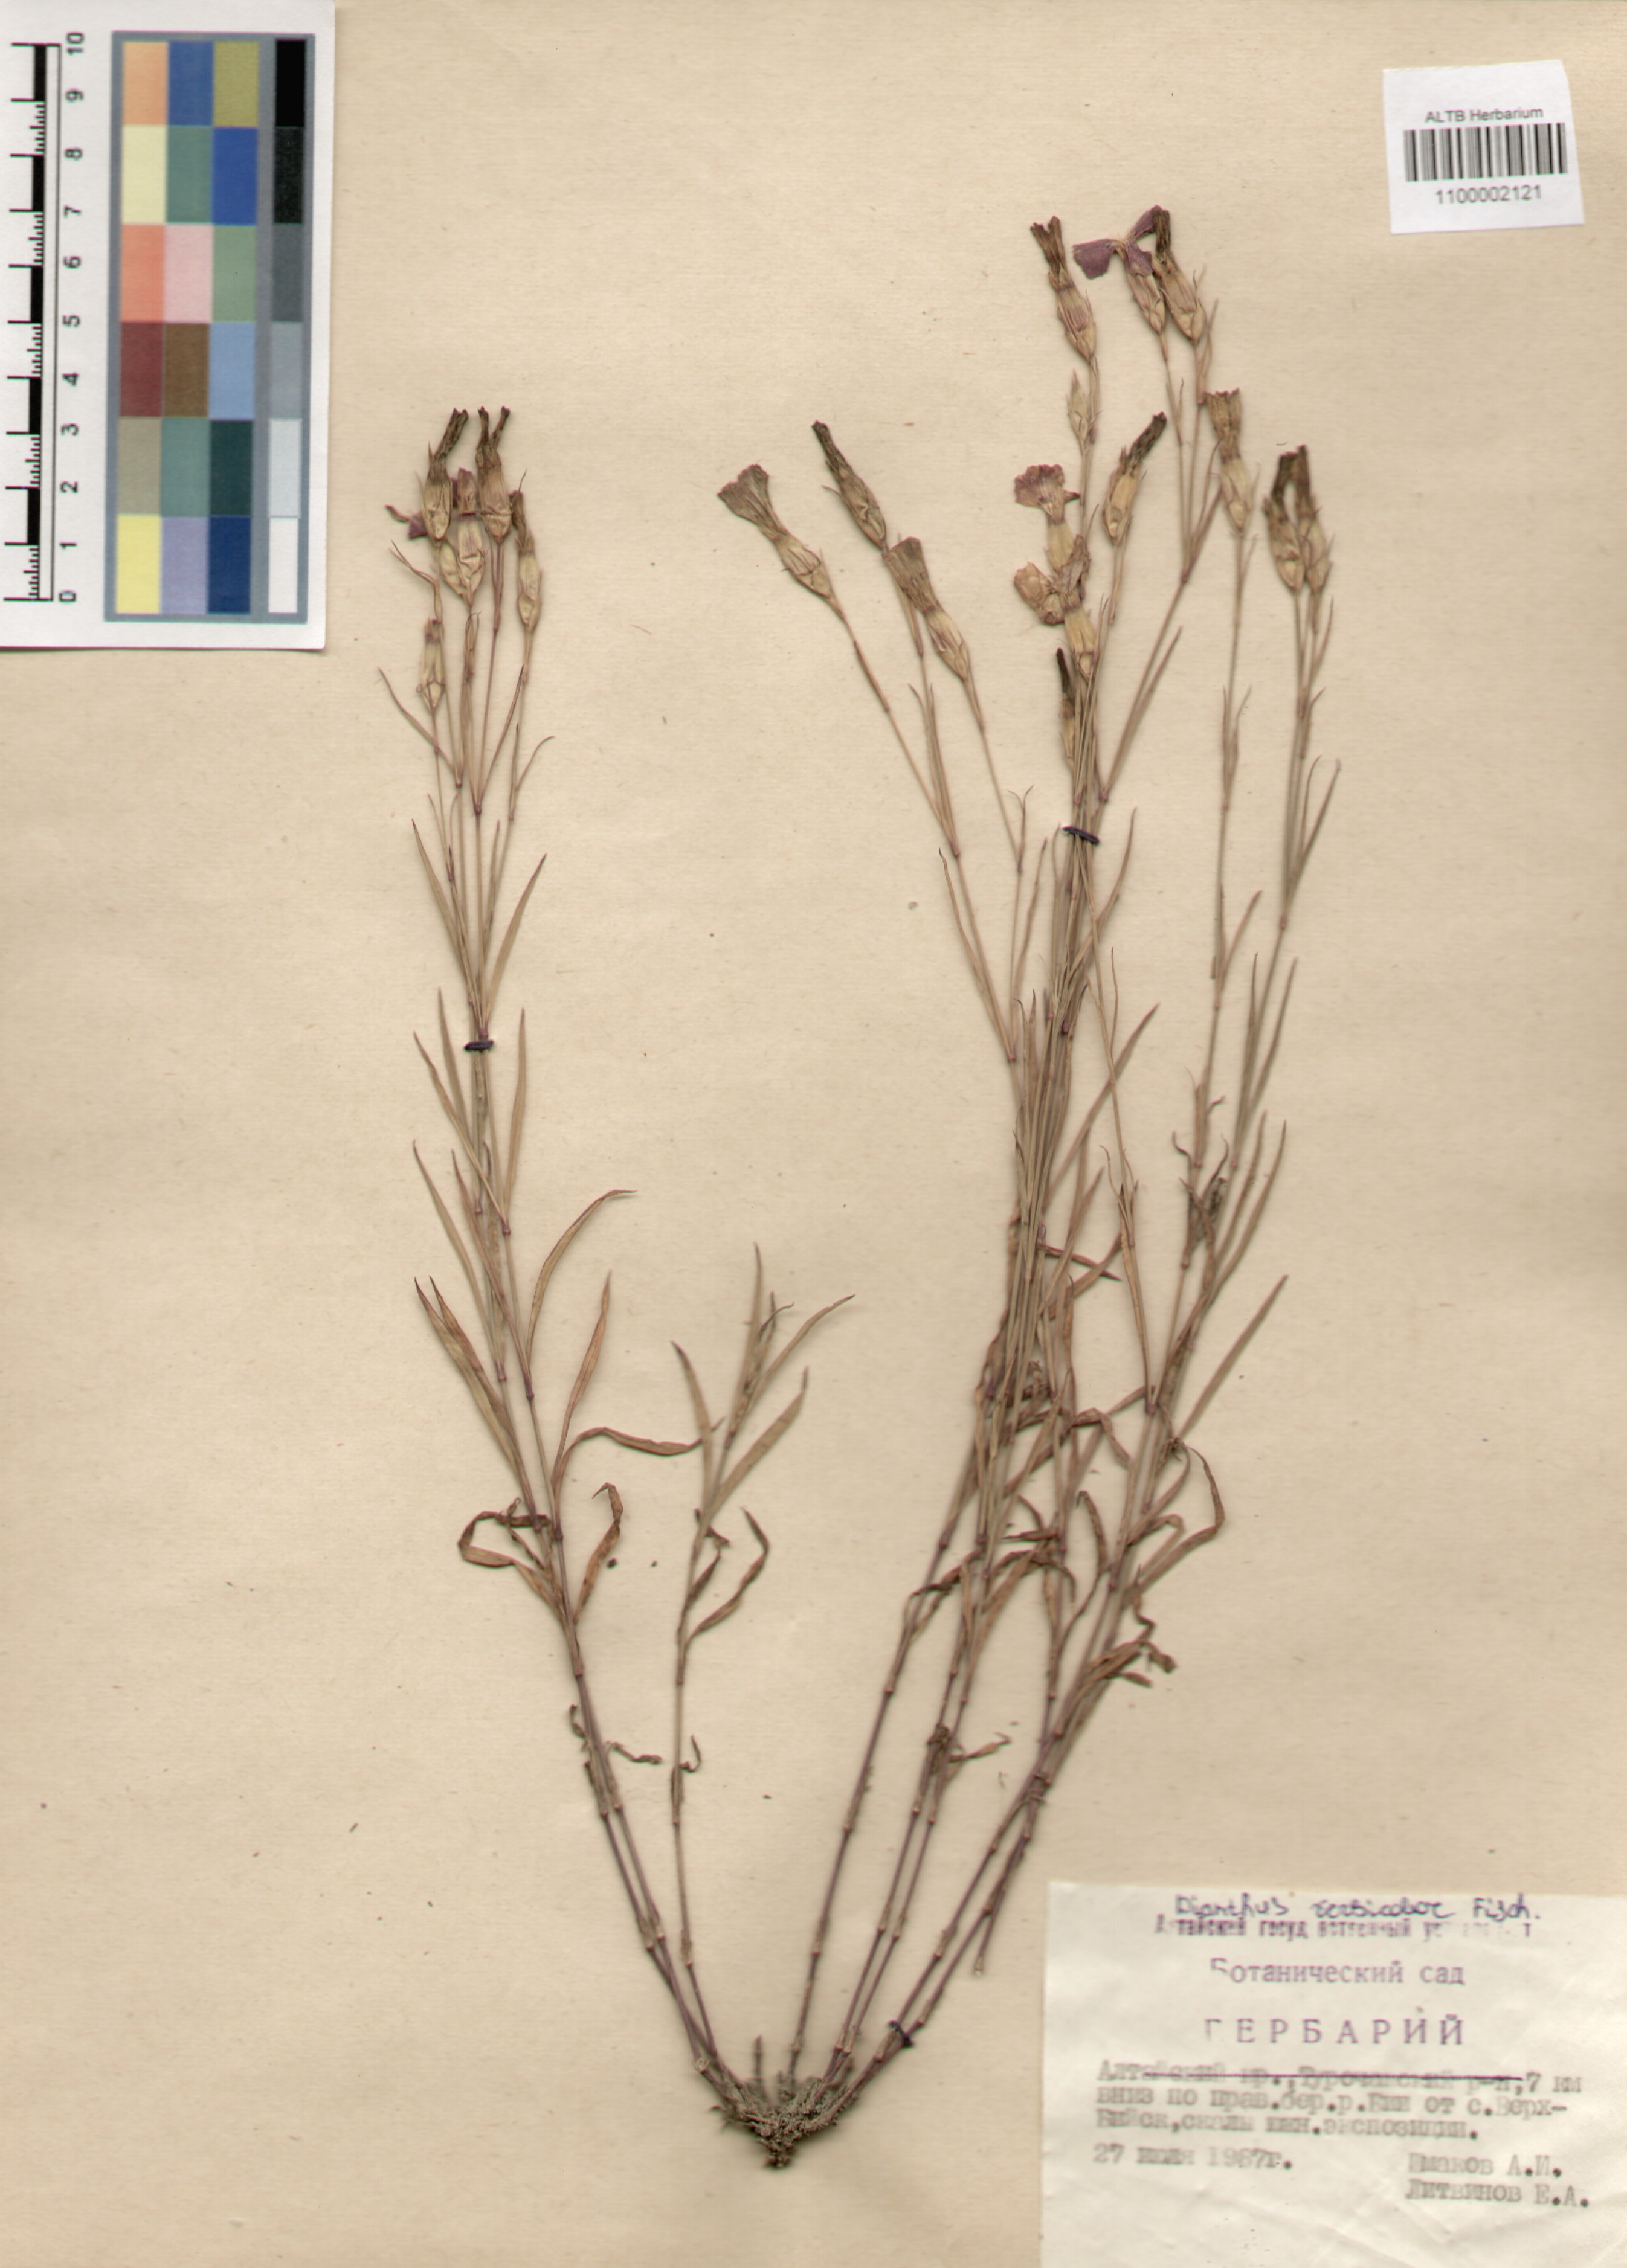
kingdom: Plantae
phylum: Tracheophyta
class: Magnoliopsida
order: Caryophyllales
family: Caryophyllaceae
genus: Dianthus
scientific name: Dianthus chinensis
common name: Rainbow pink
